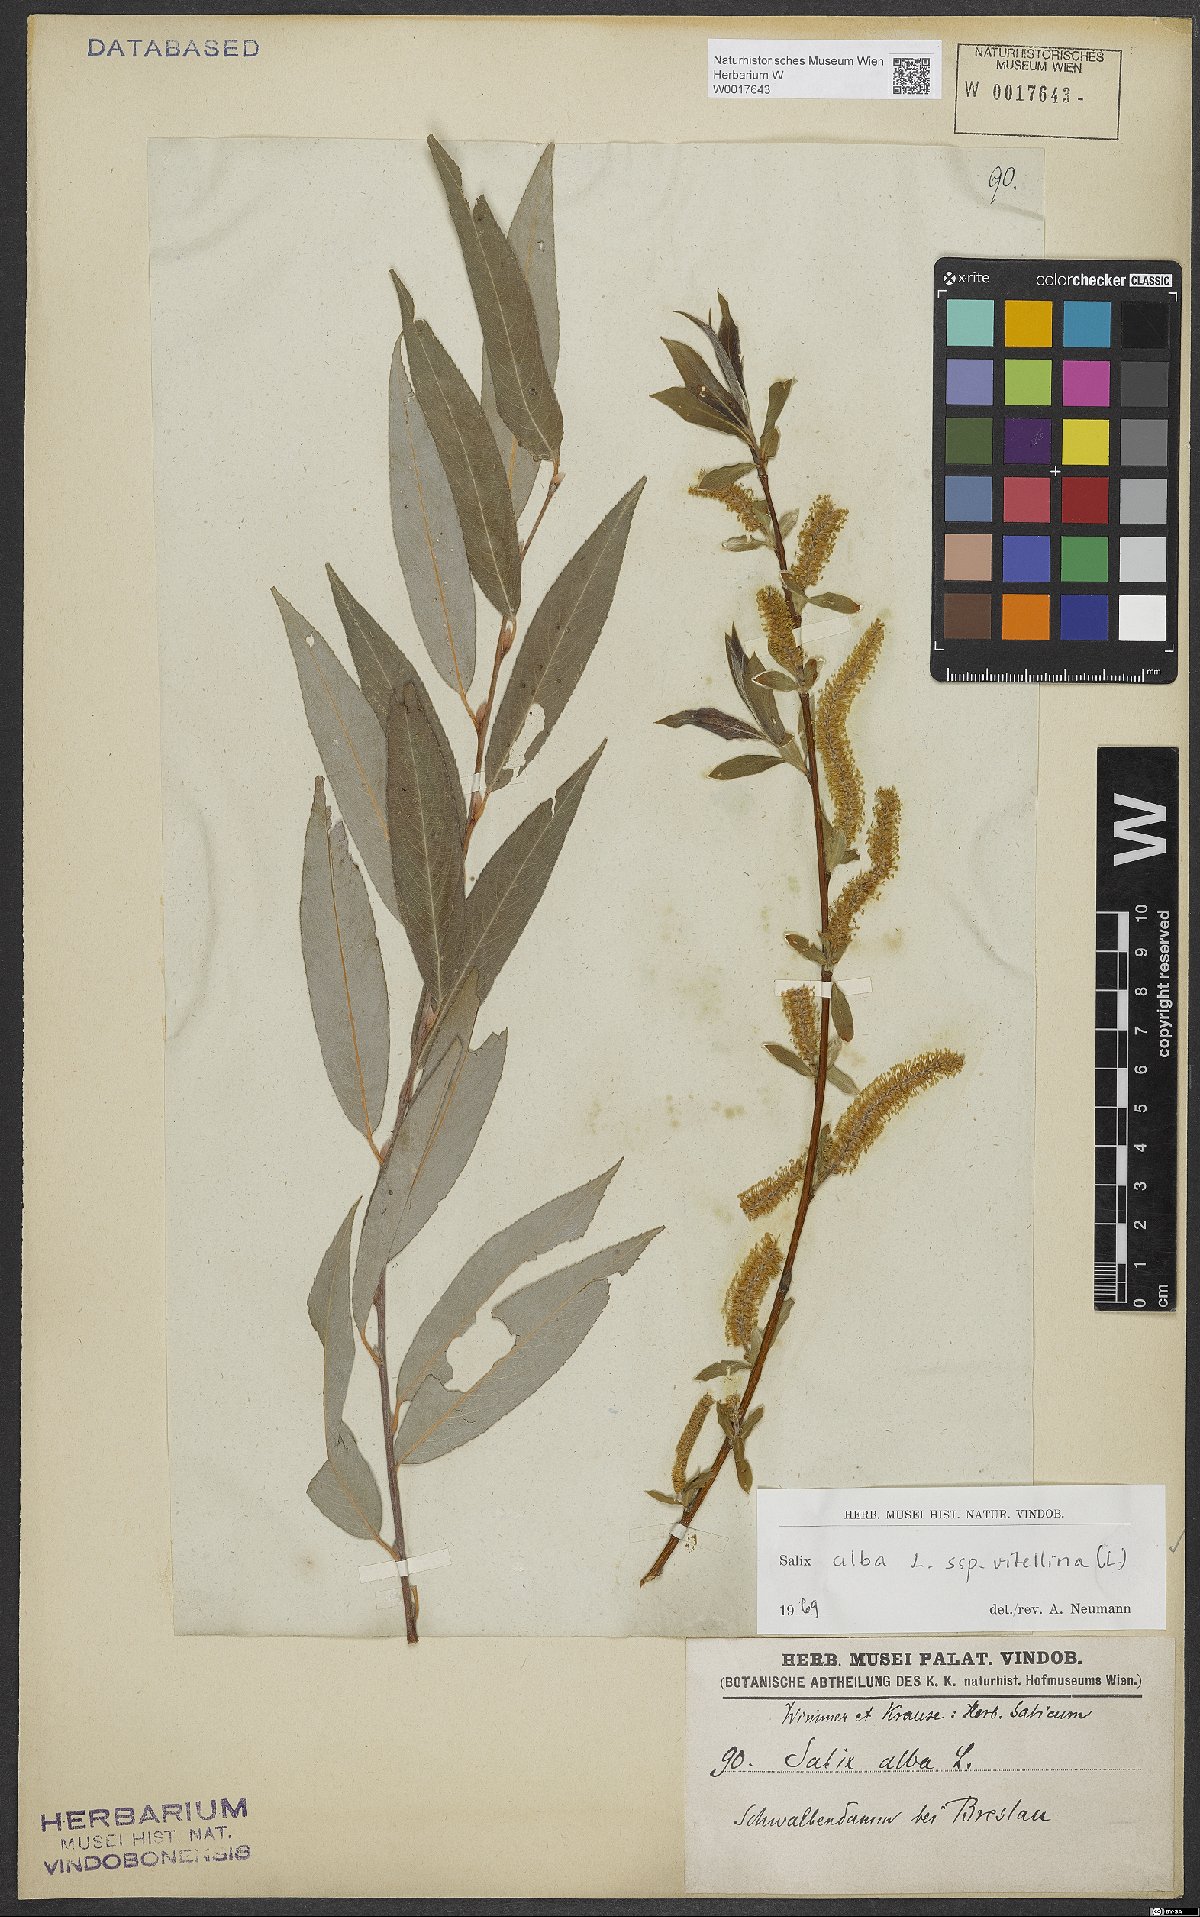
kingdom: Plantae
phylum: Tracheophyta
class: Magnoliopsida
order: Malpighiales
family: Salicaceae
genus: Salix
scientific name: Salix alba
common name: White willow
